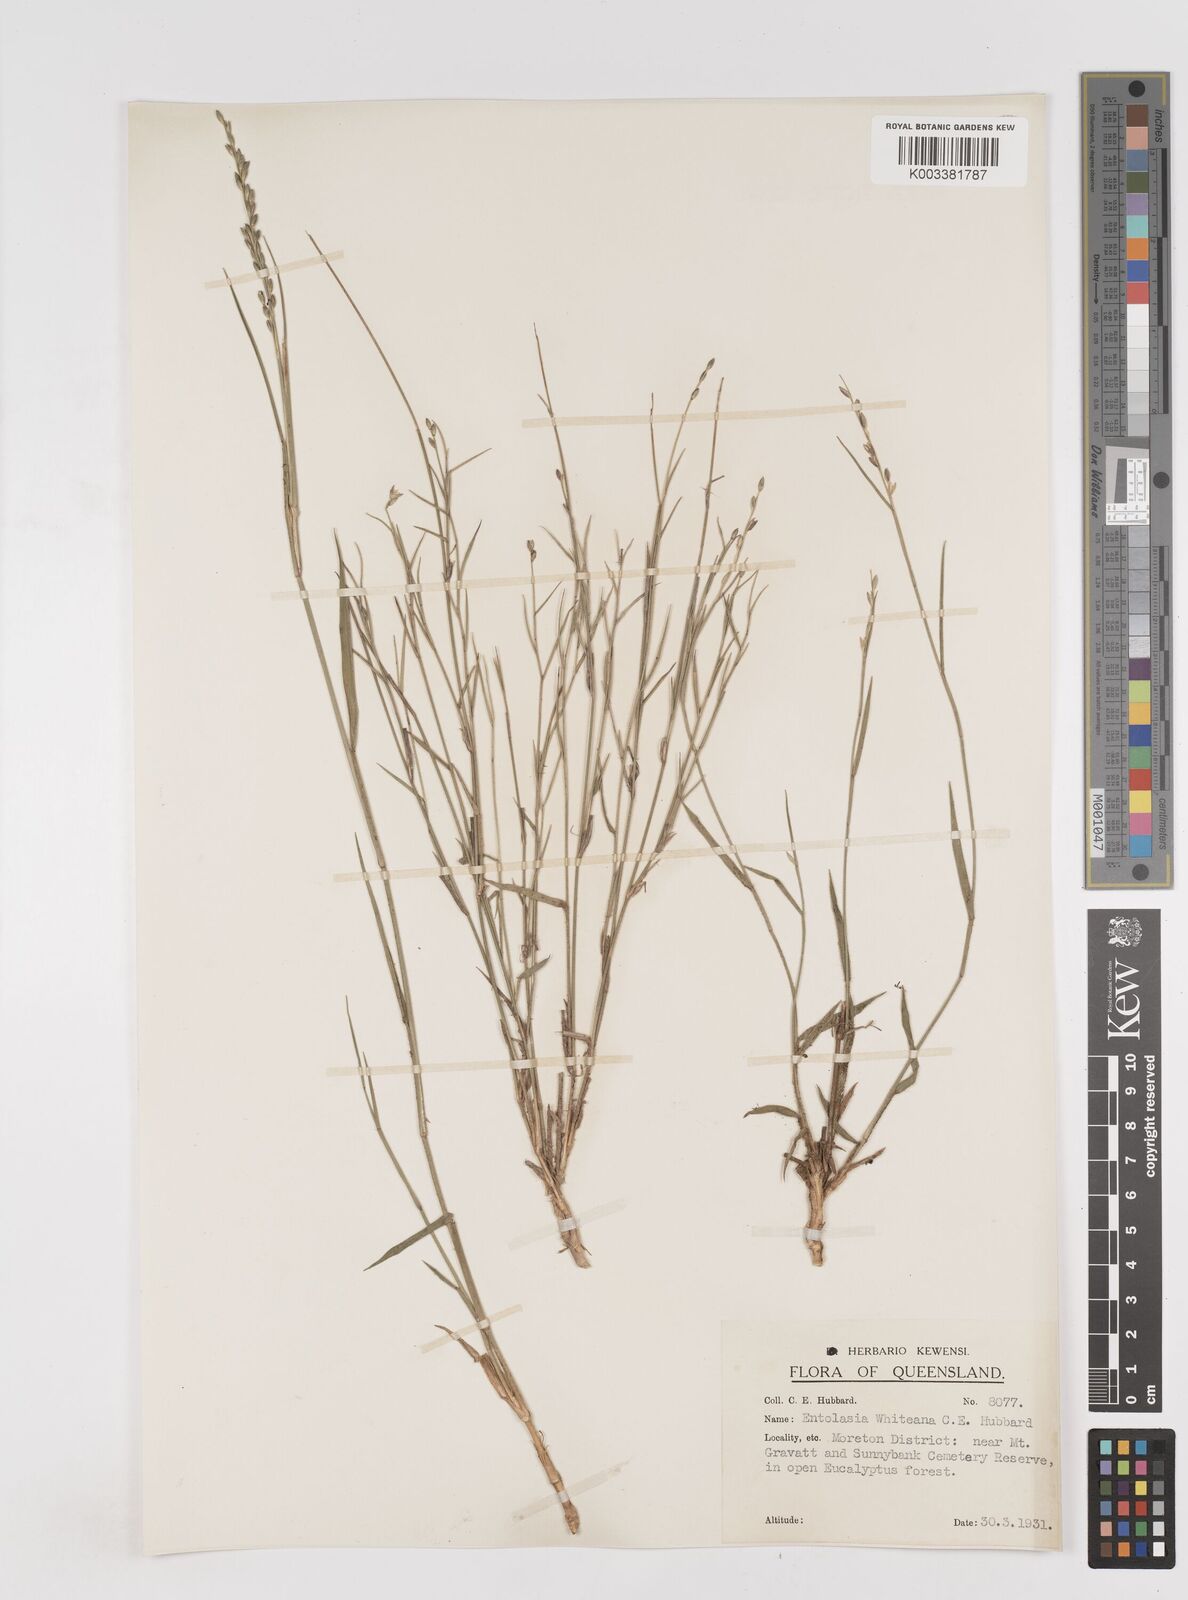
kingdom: Plantae
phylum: Tracheophyta
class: Liliopsida
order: Poales
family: Poaceae
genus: Entolasia
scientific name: Entolasia whiteana
